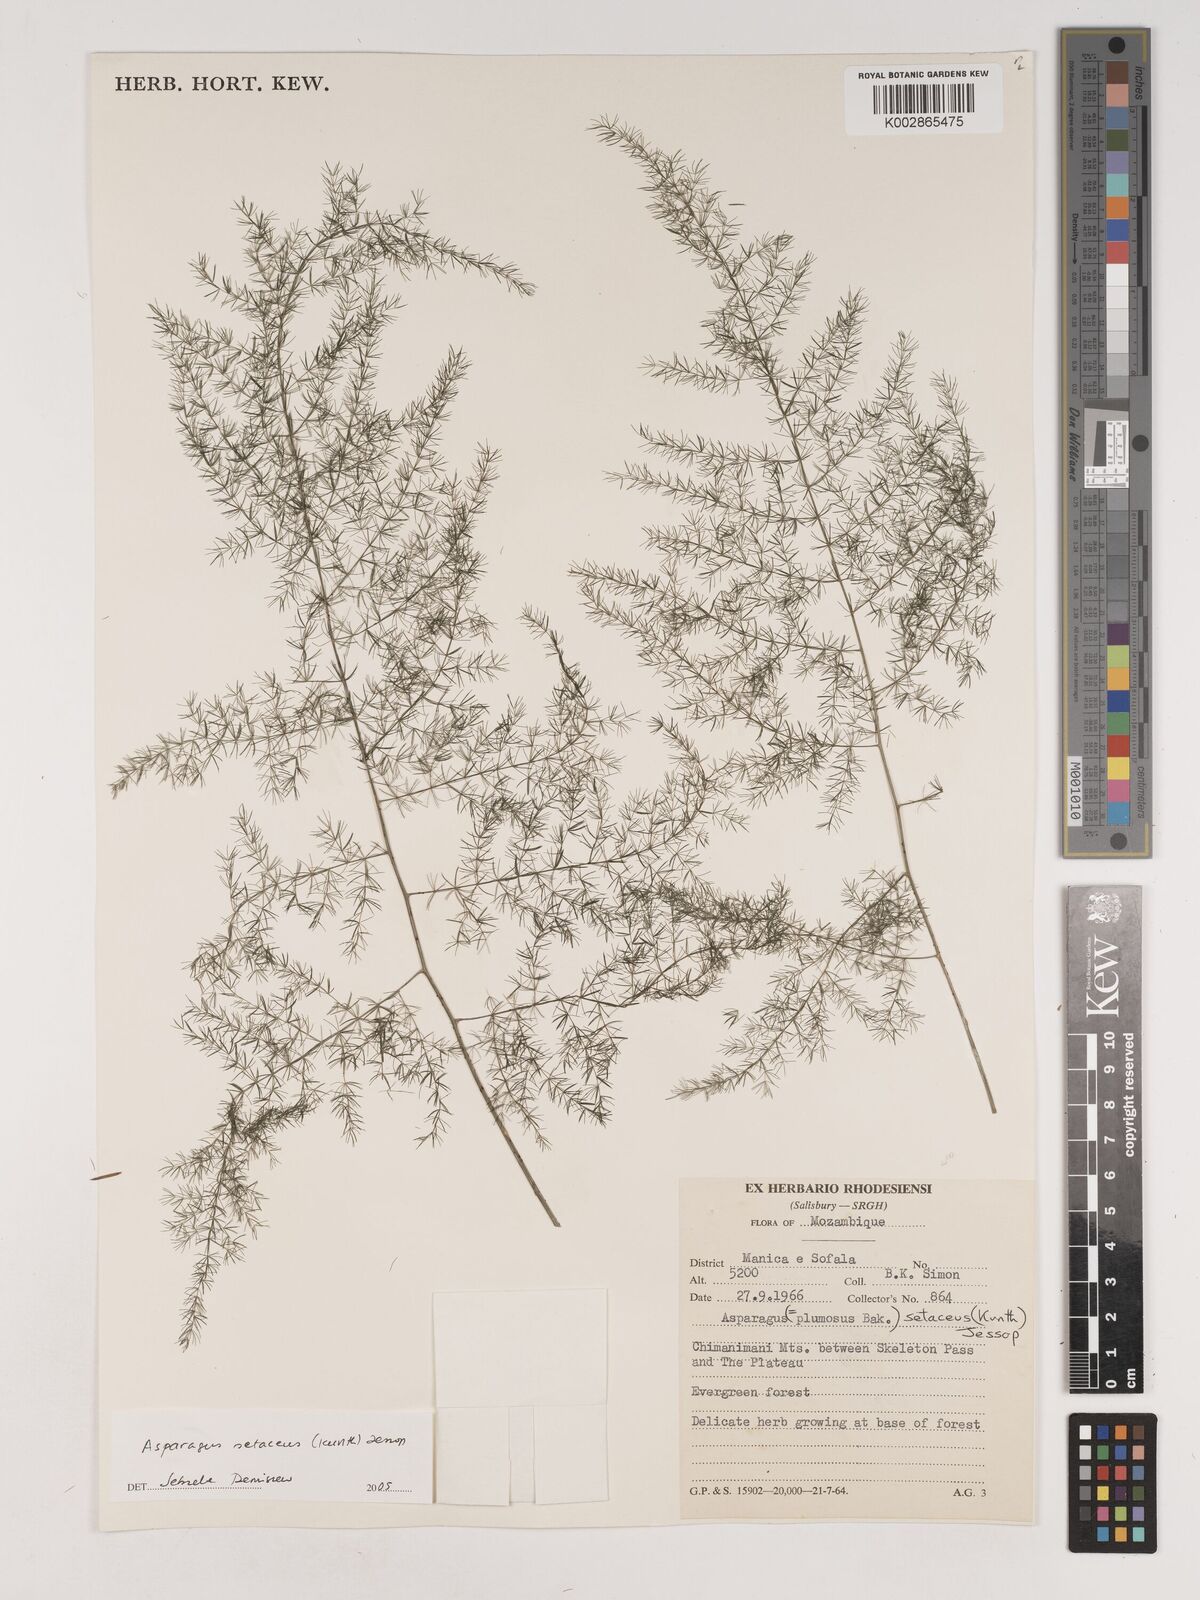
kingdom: Plantae
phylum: Tracheophyta
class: Liliopsida
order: Asparagales
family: Asparagaceae
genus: Asparagus
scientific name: Asparagus setaceus
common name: Common asparagus fern
